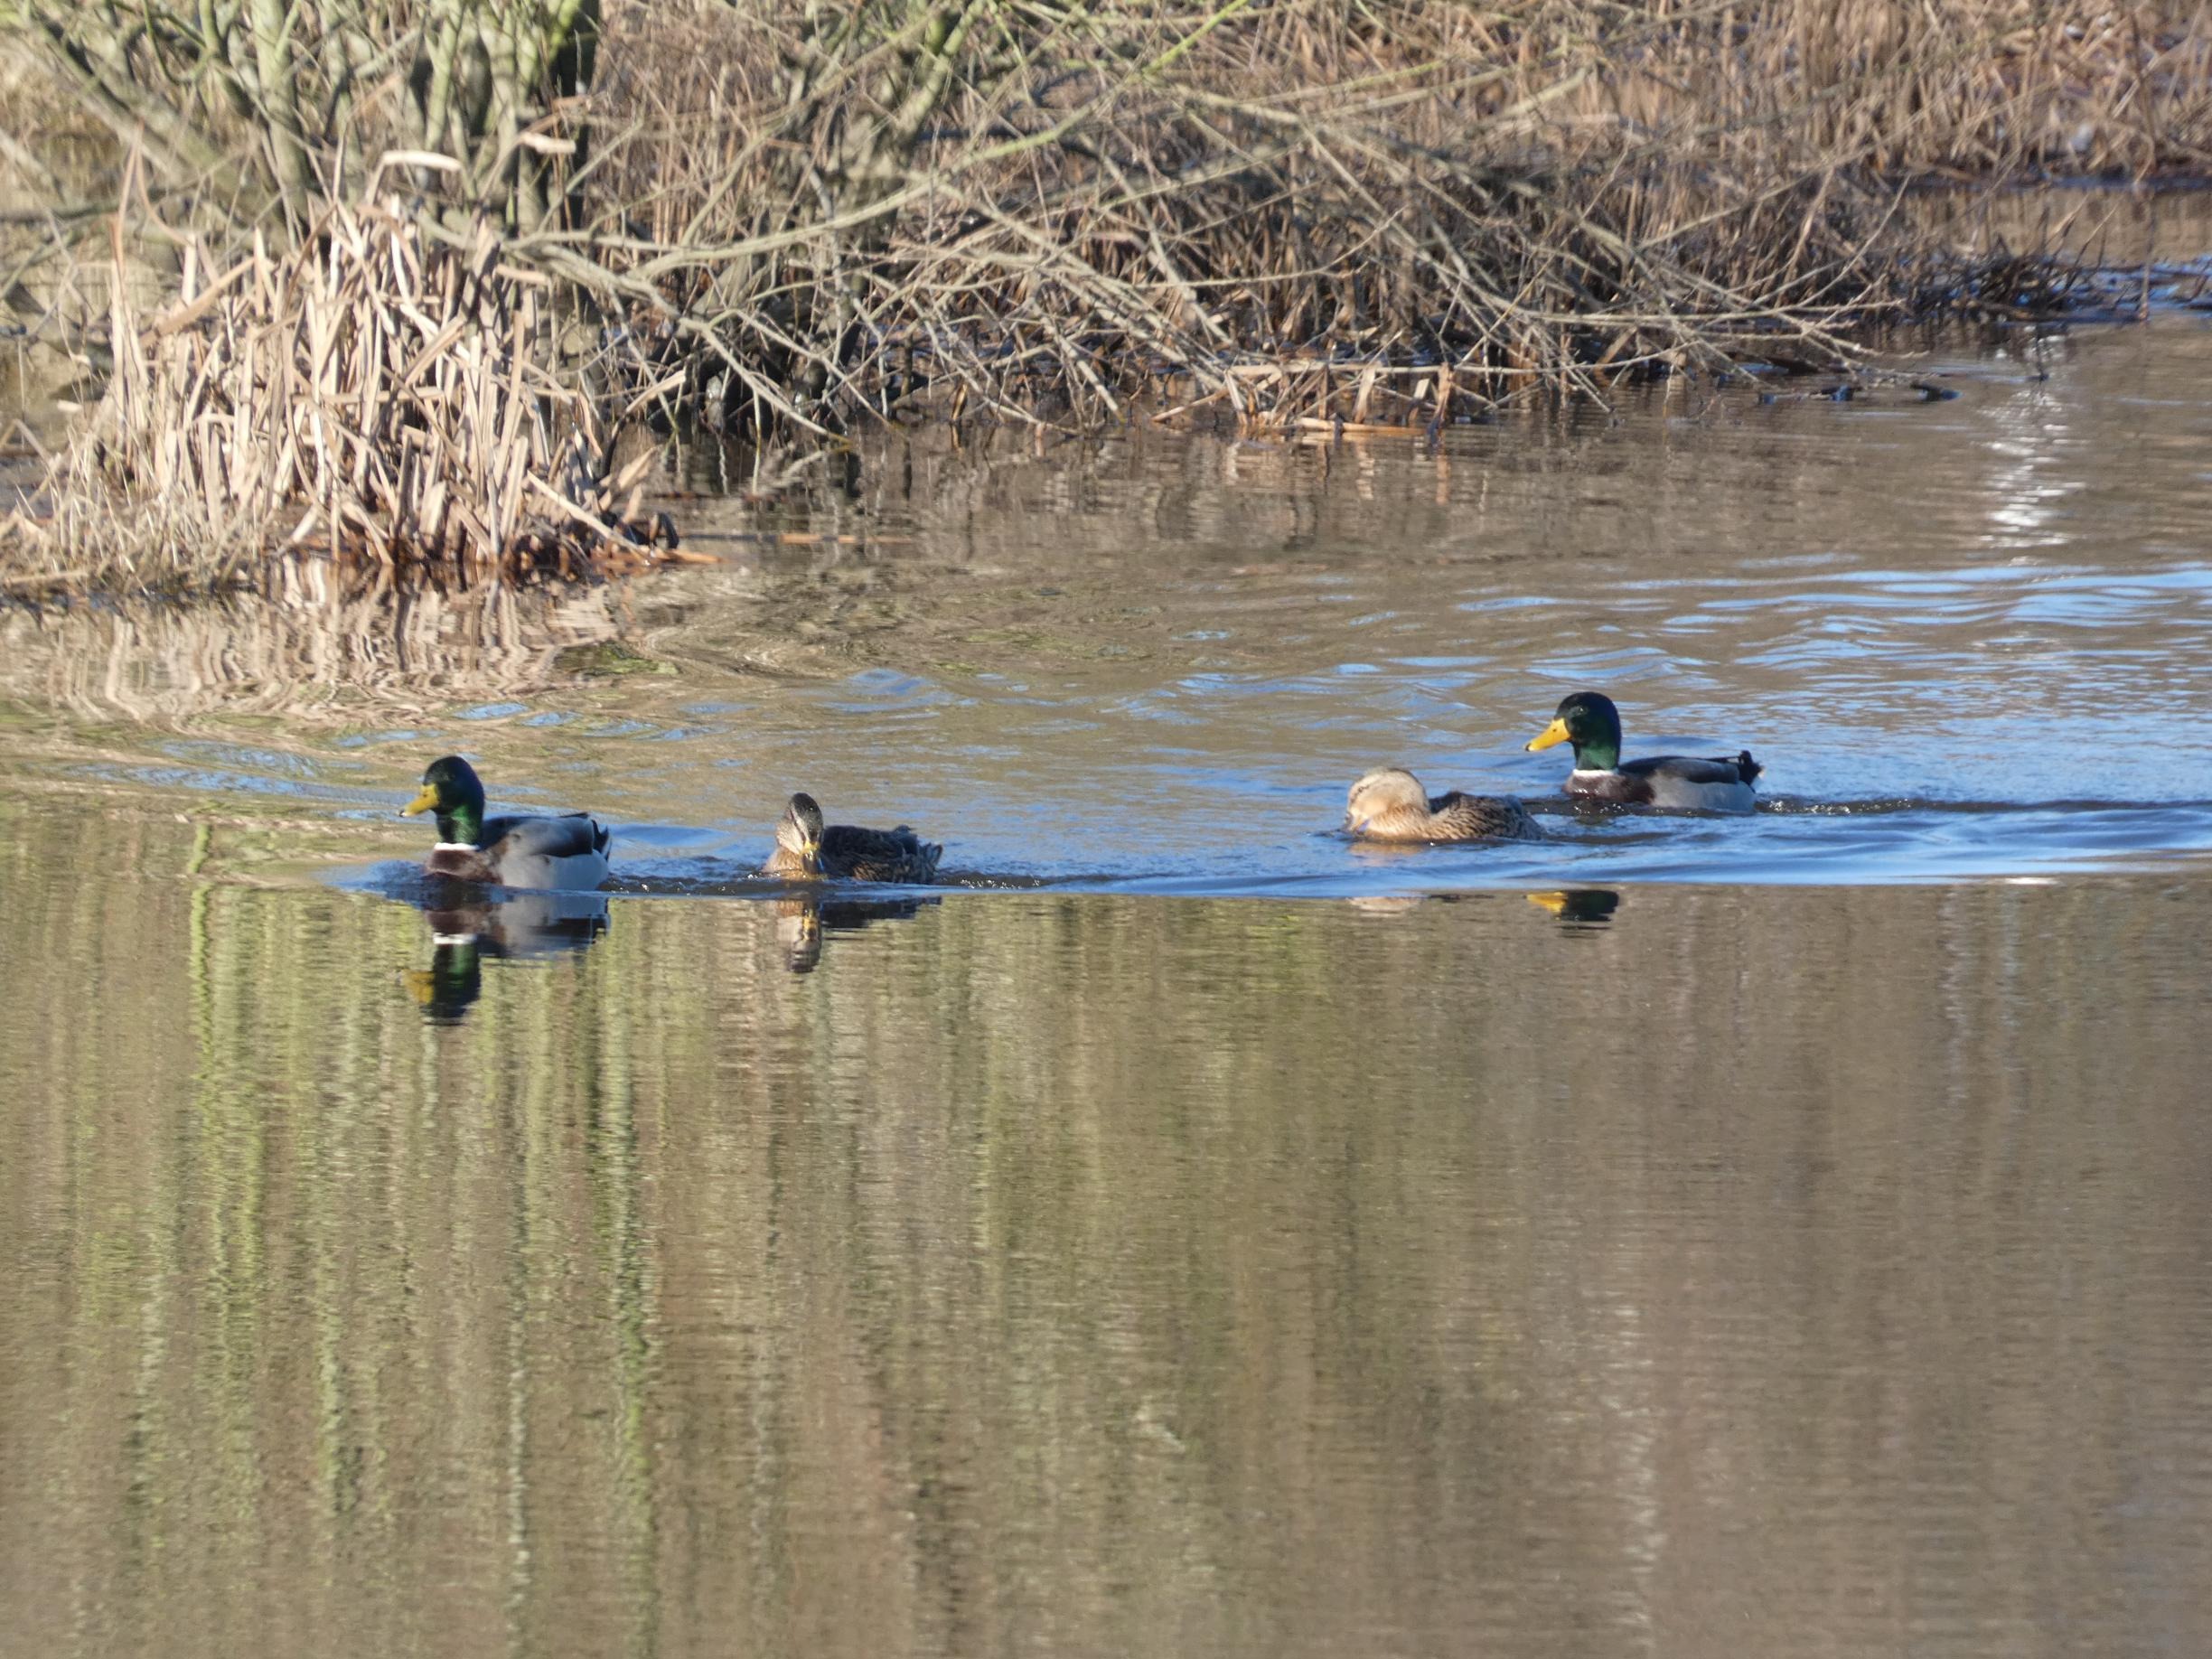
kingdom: Animalia
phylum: Chordata
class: Aves
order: Anseriformes
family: Anatidae
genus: Anas
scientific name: Anas platyrhynchos
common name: Gråand
